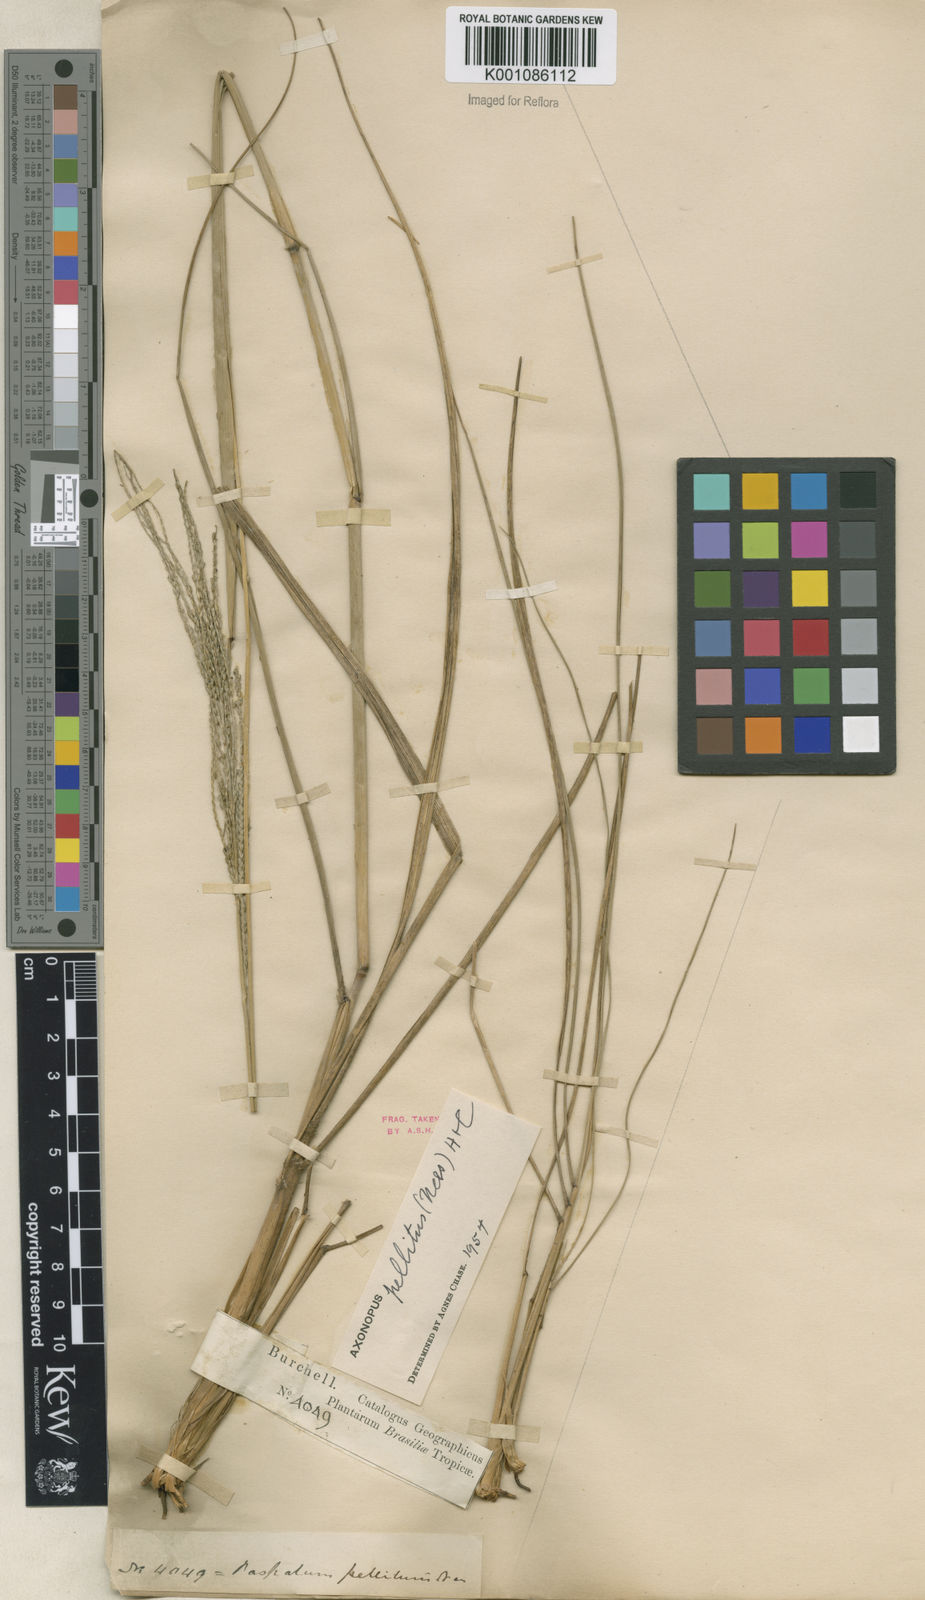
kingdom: Plantae
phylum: Tracheophyta
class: Liliopsida
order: Poales
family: Poaceae
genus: Axonopus
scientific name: Axonopus siccus
